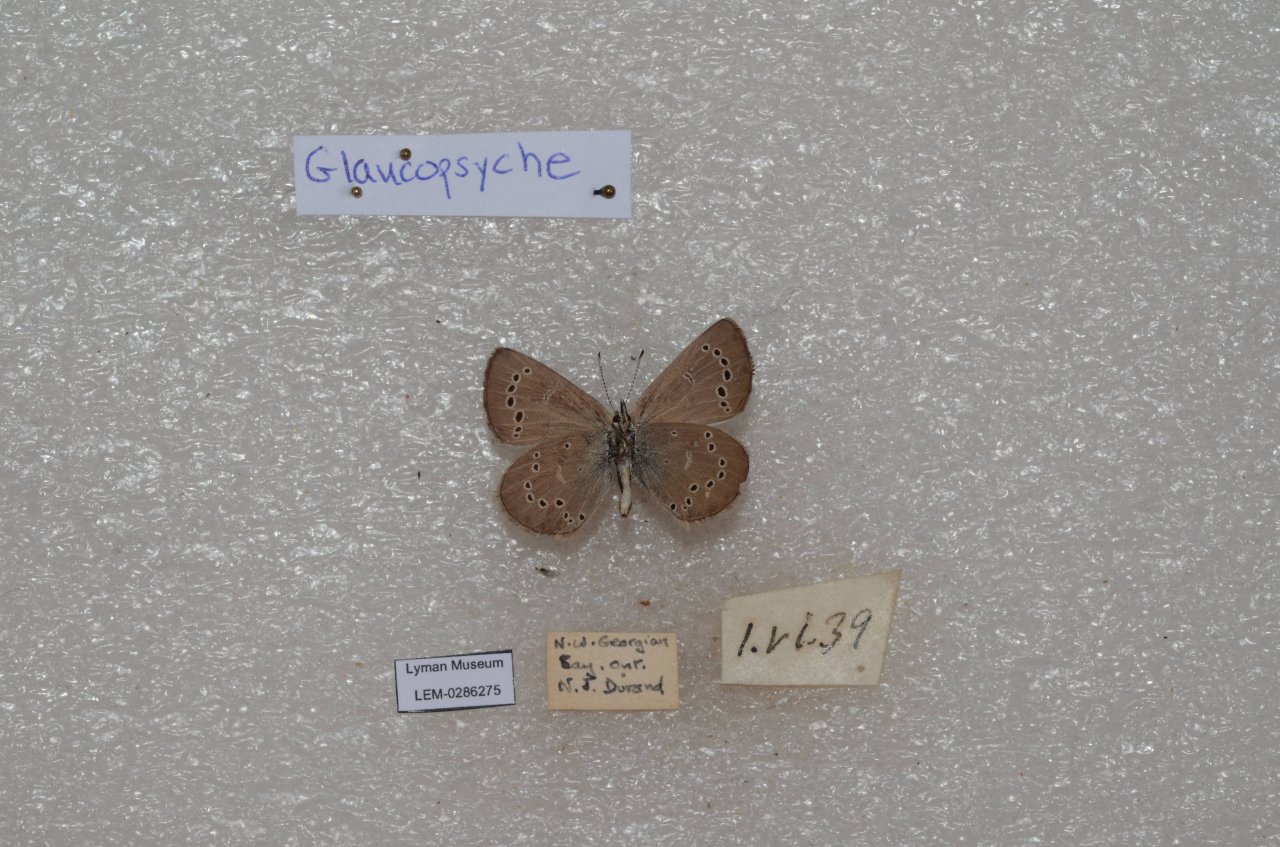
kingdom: Animalia
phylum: Arthropoda
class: Insecta
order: Lepidoptera
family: Lycaenidae
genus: Glaucopsyche
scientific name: Glaucopsyche lygdamus
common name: Silvery Blue
